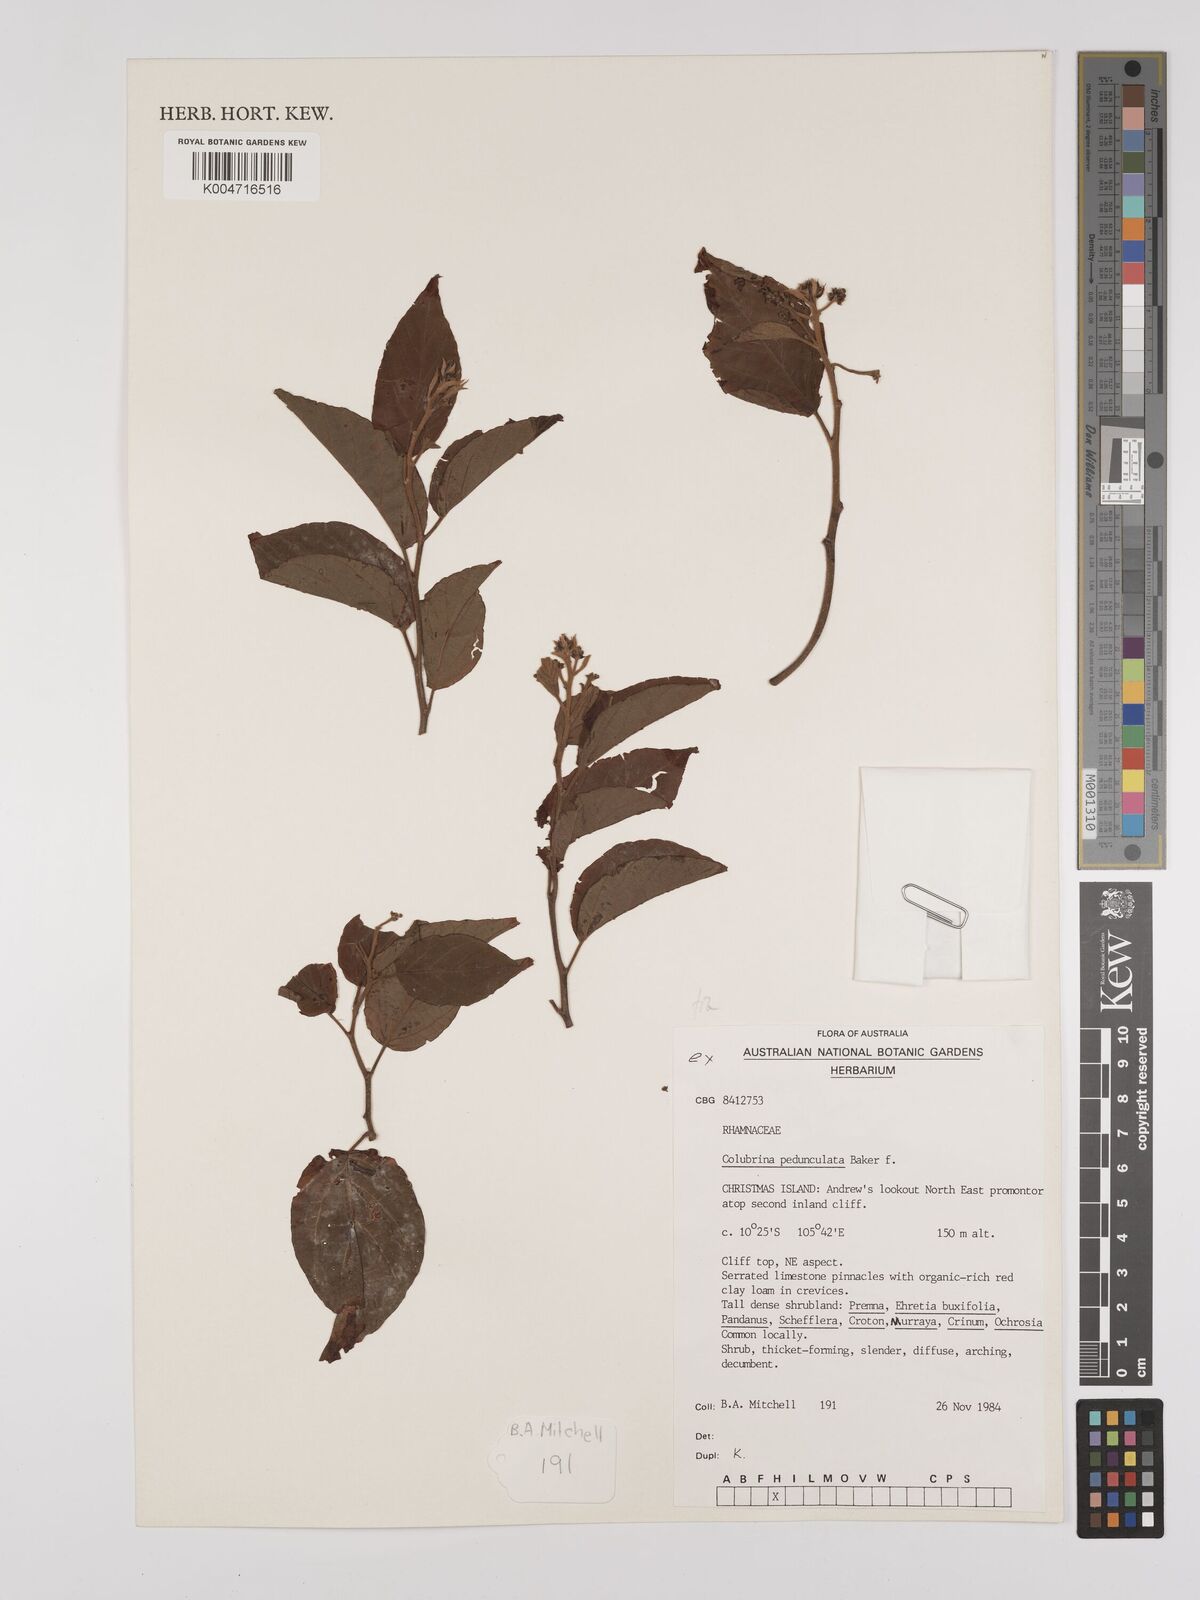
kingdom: Plantae
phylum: Tracheophyta
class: Magnoliopsida
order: Rosales
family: Rhamnaceae
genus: Colubrina
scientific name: Colubrina pedunculata
